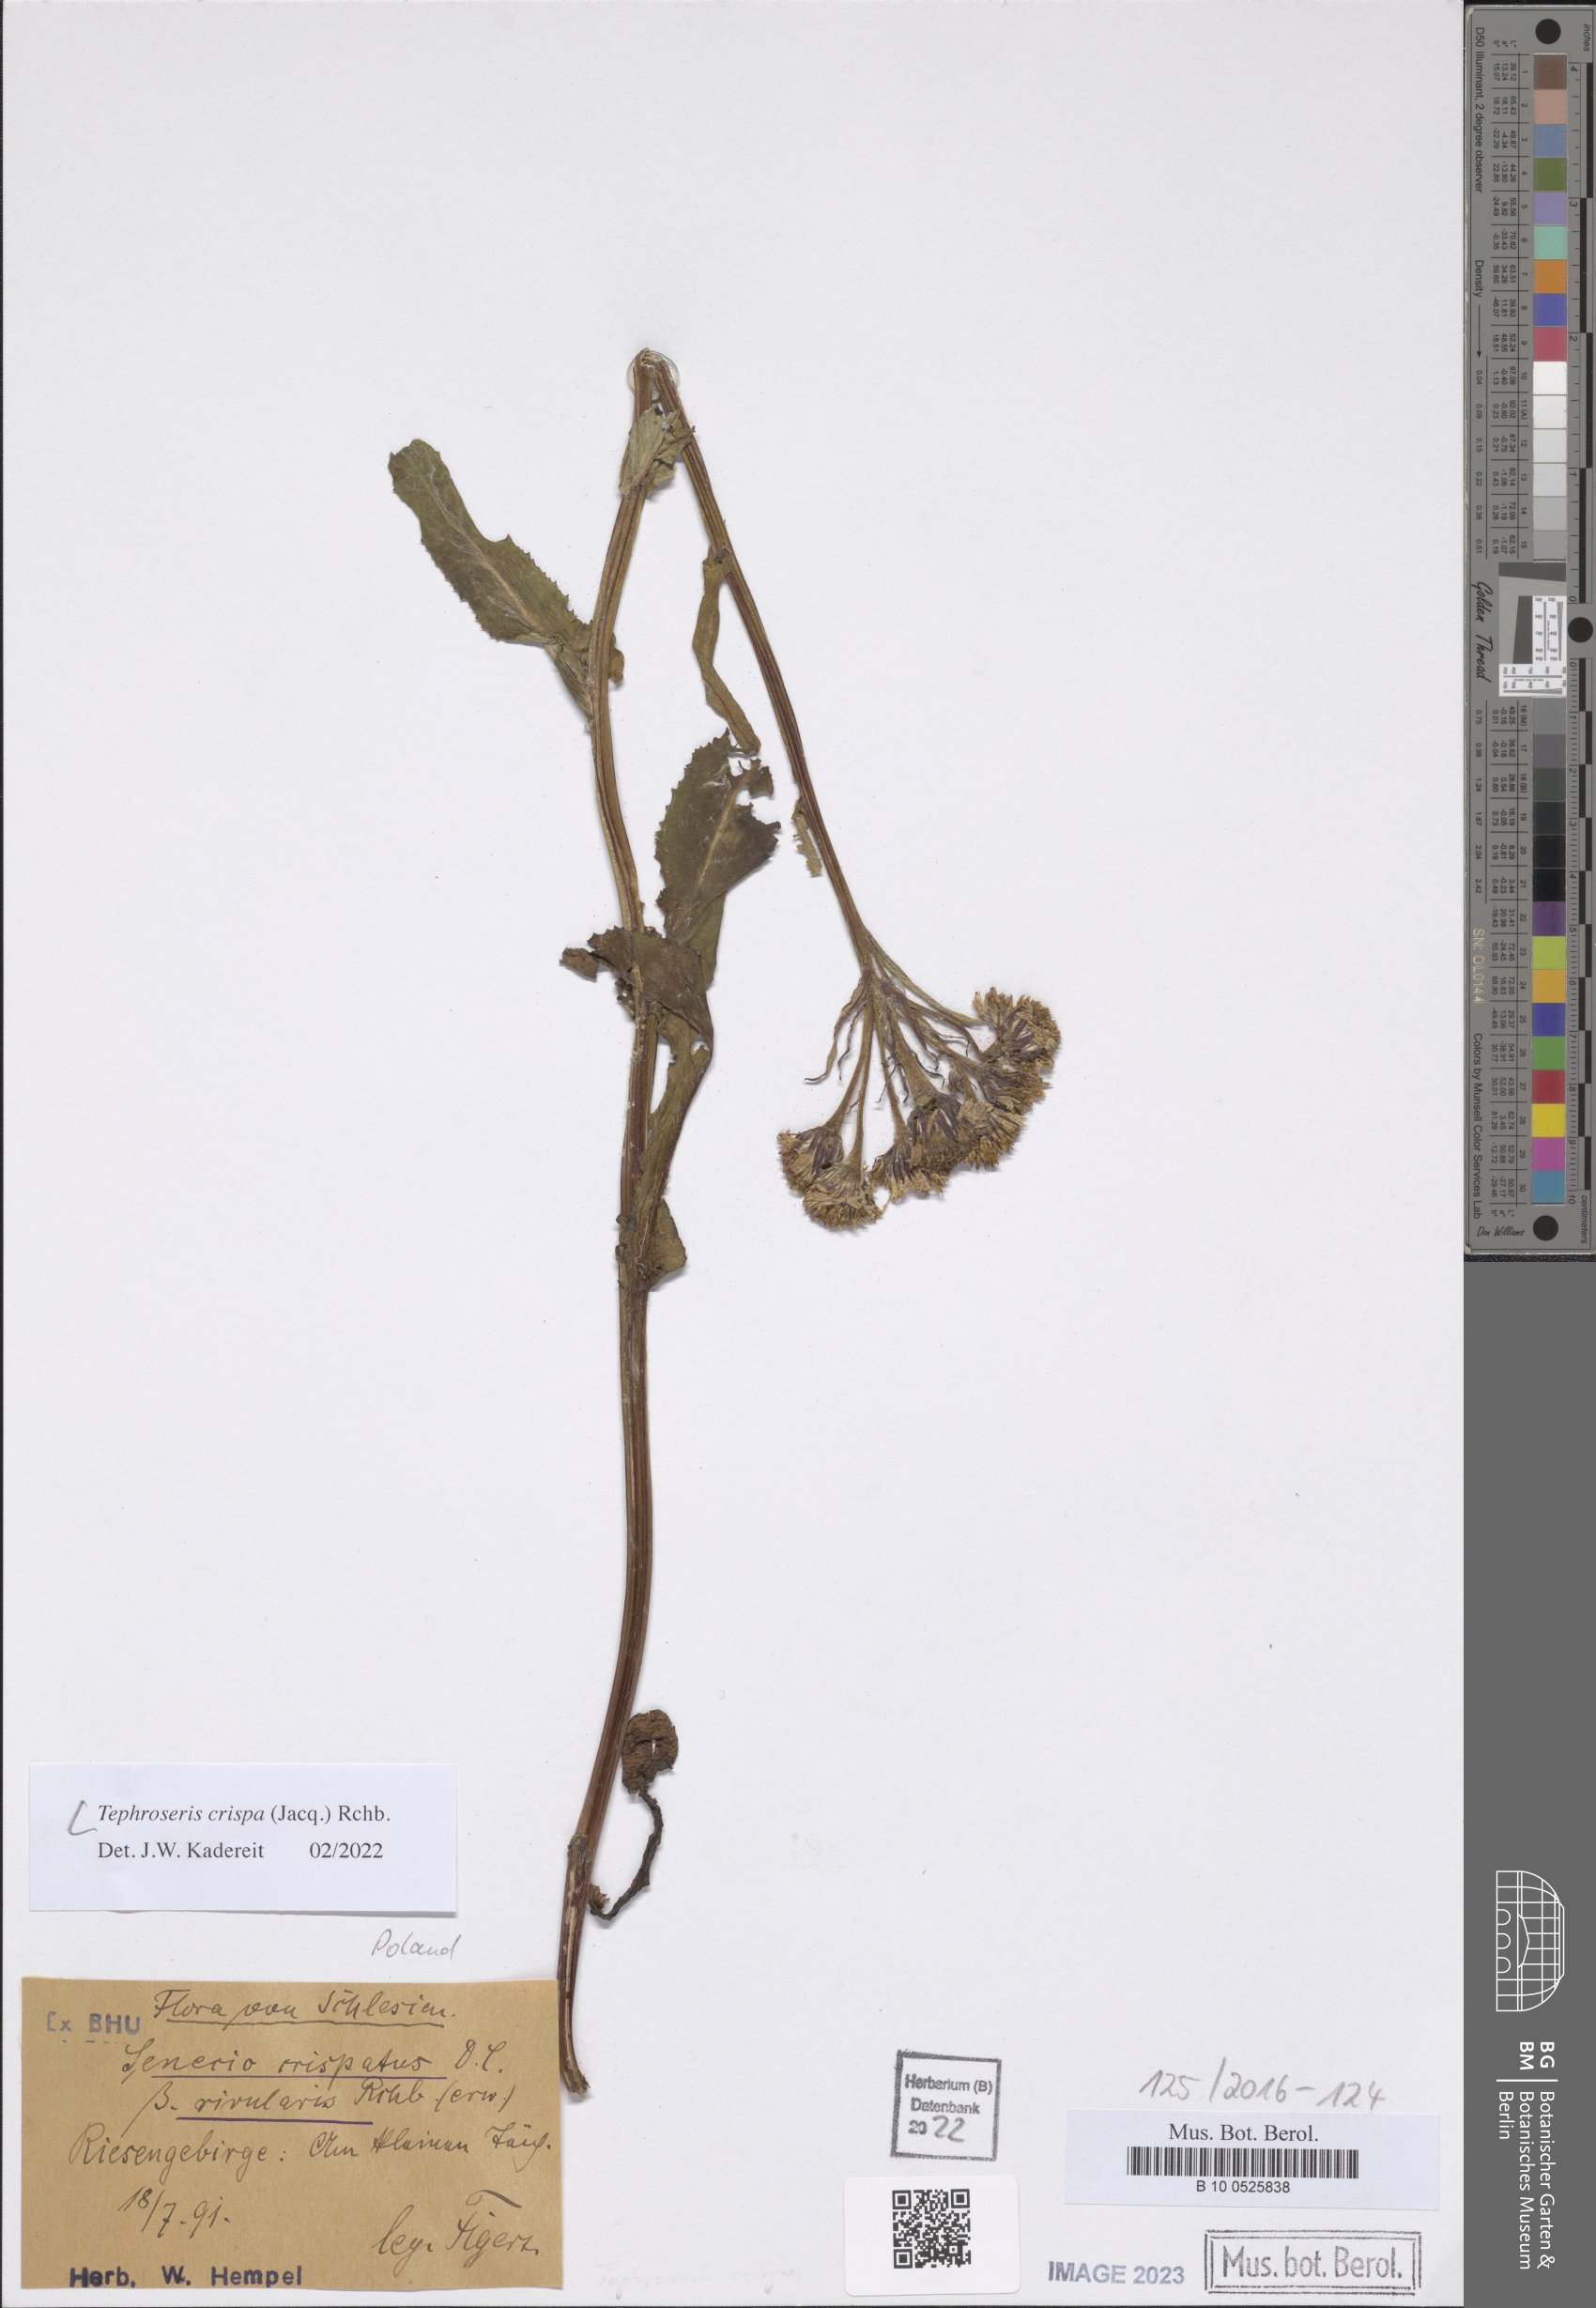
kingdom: Plantae
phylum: Tracheophyta
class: Magnoliopsida
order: Asterales
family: Asteraceae
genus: Tephroseris
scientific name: Tephroseris crispa
